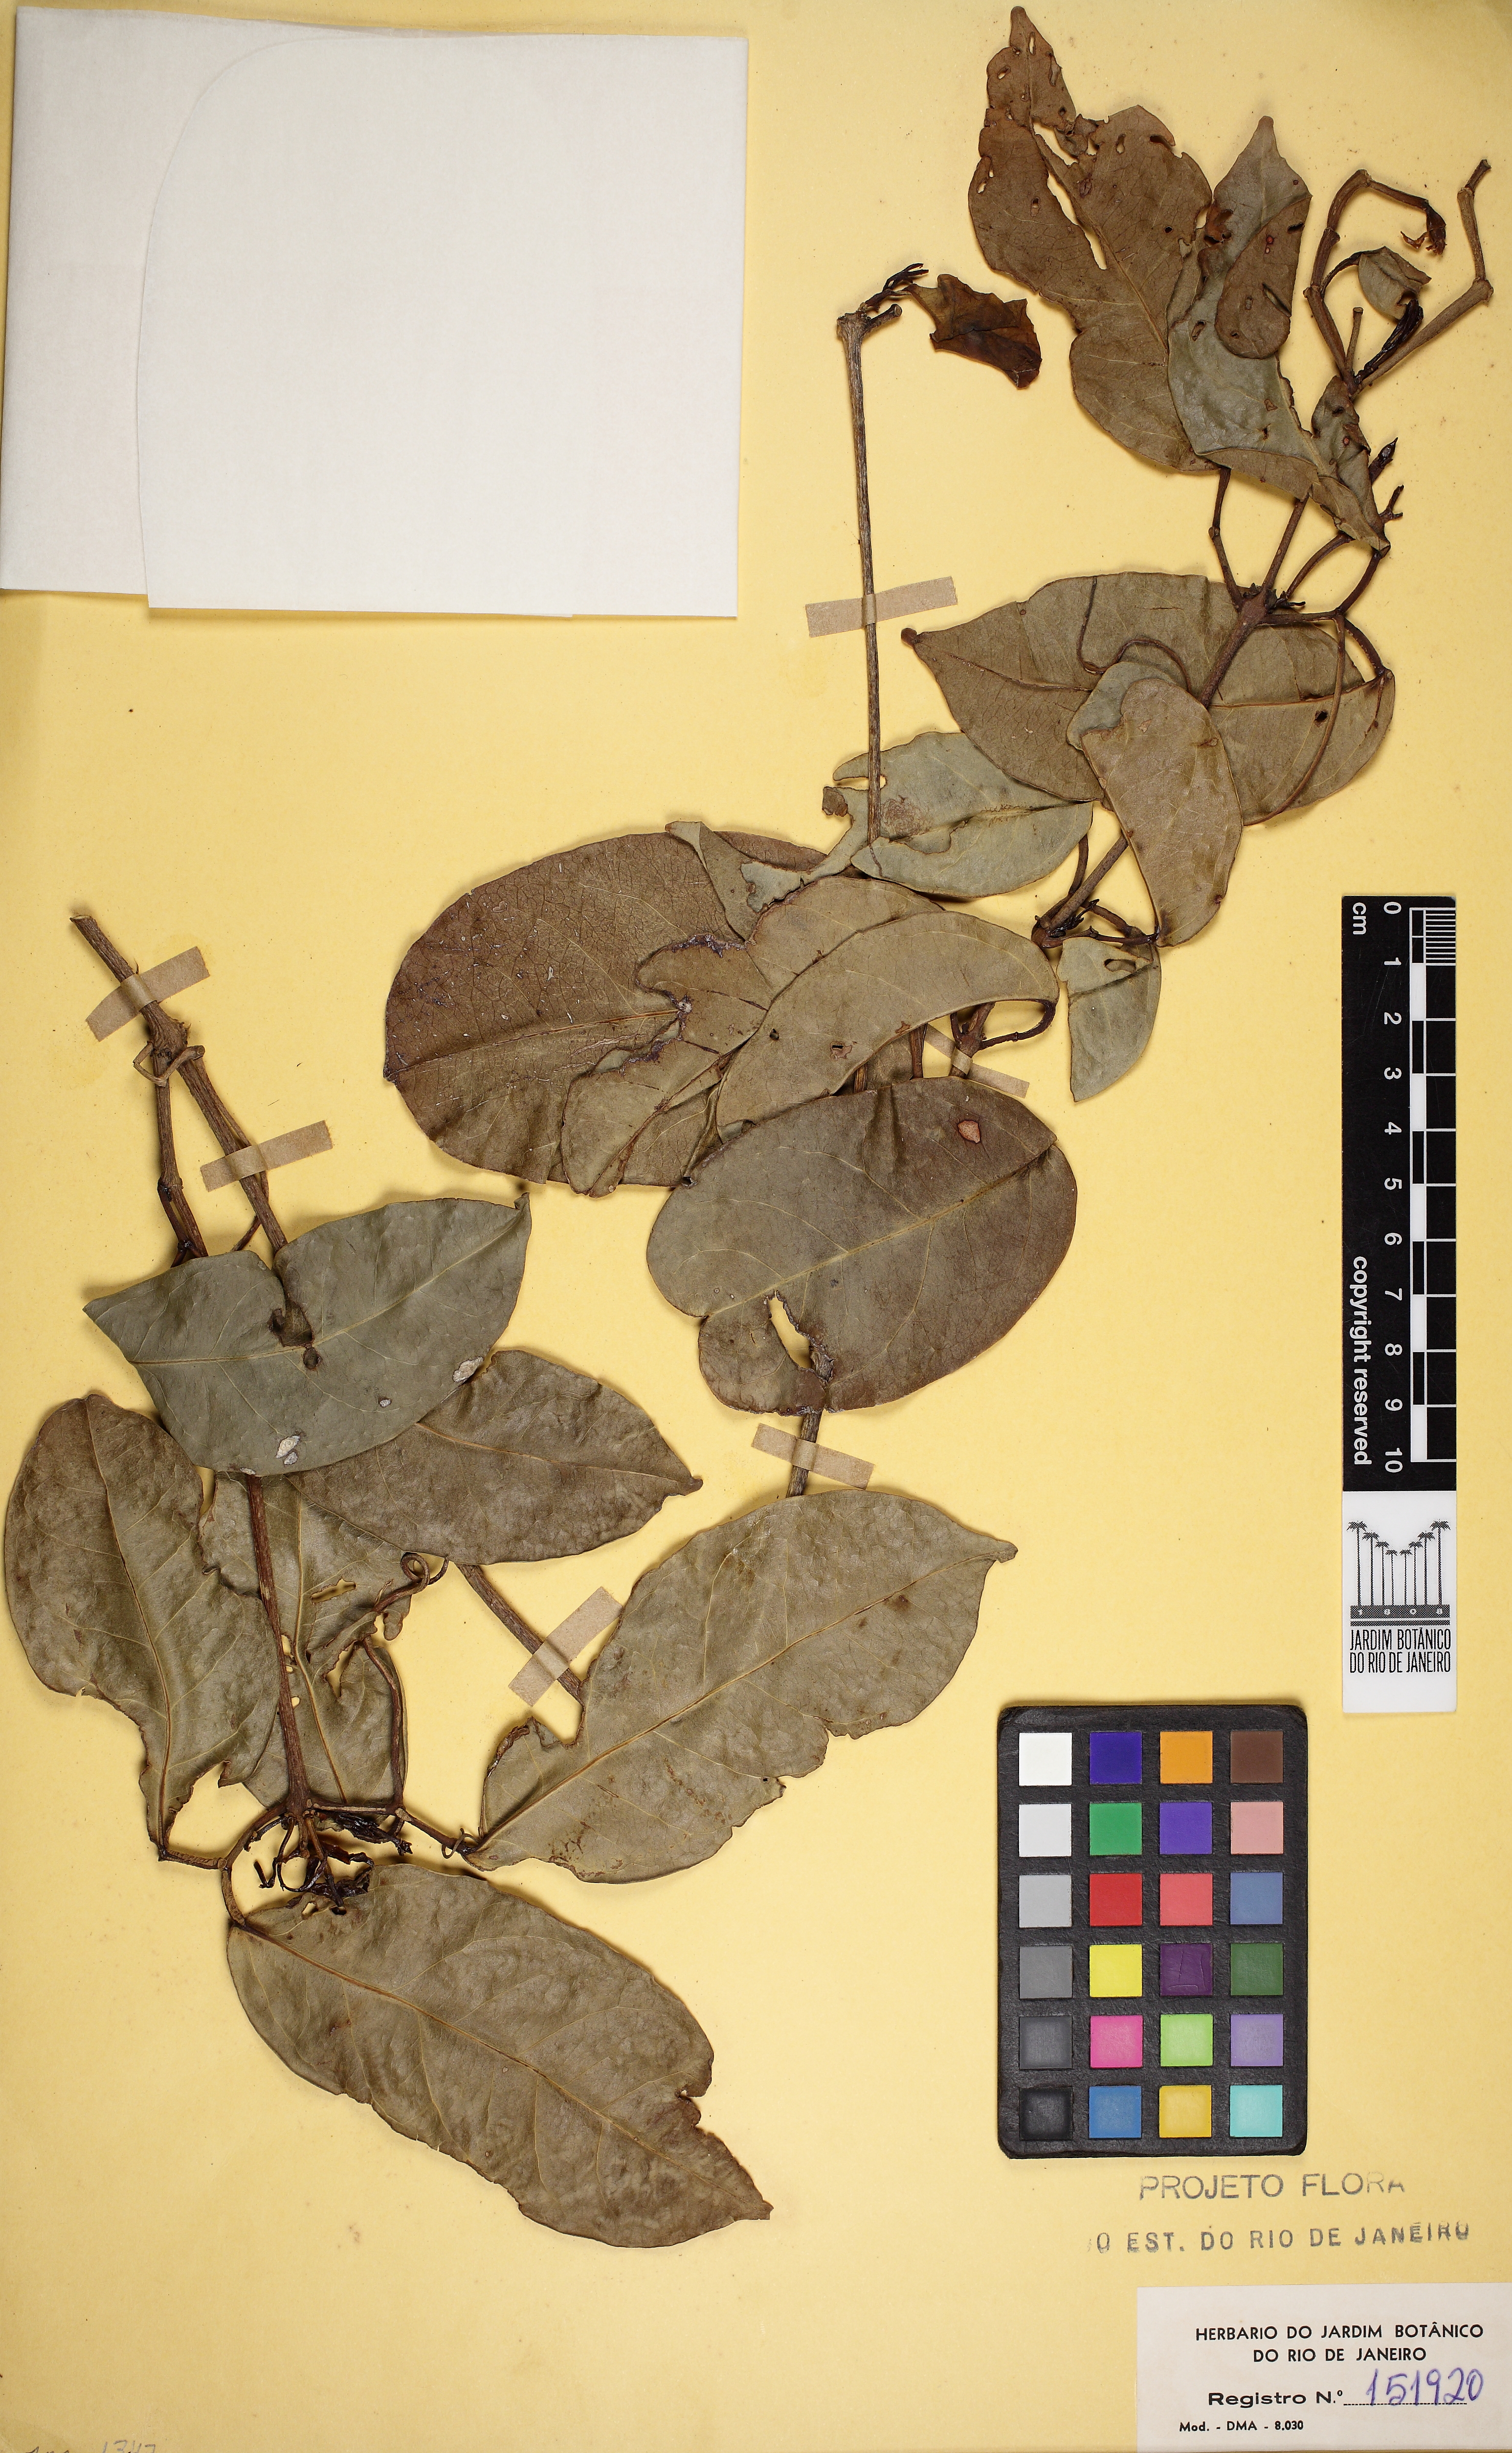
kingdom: Plantae
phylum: Tracheophyta
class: Magnoliopsida
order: Lamiales
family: Bignoniaceae
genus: Bignonia
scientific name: Bignonia corymbosa
